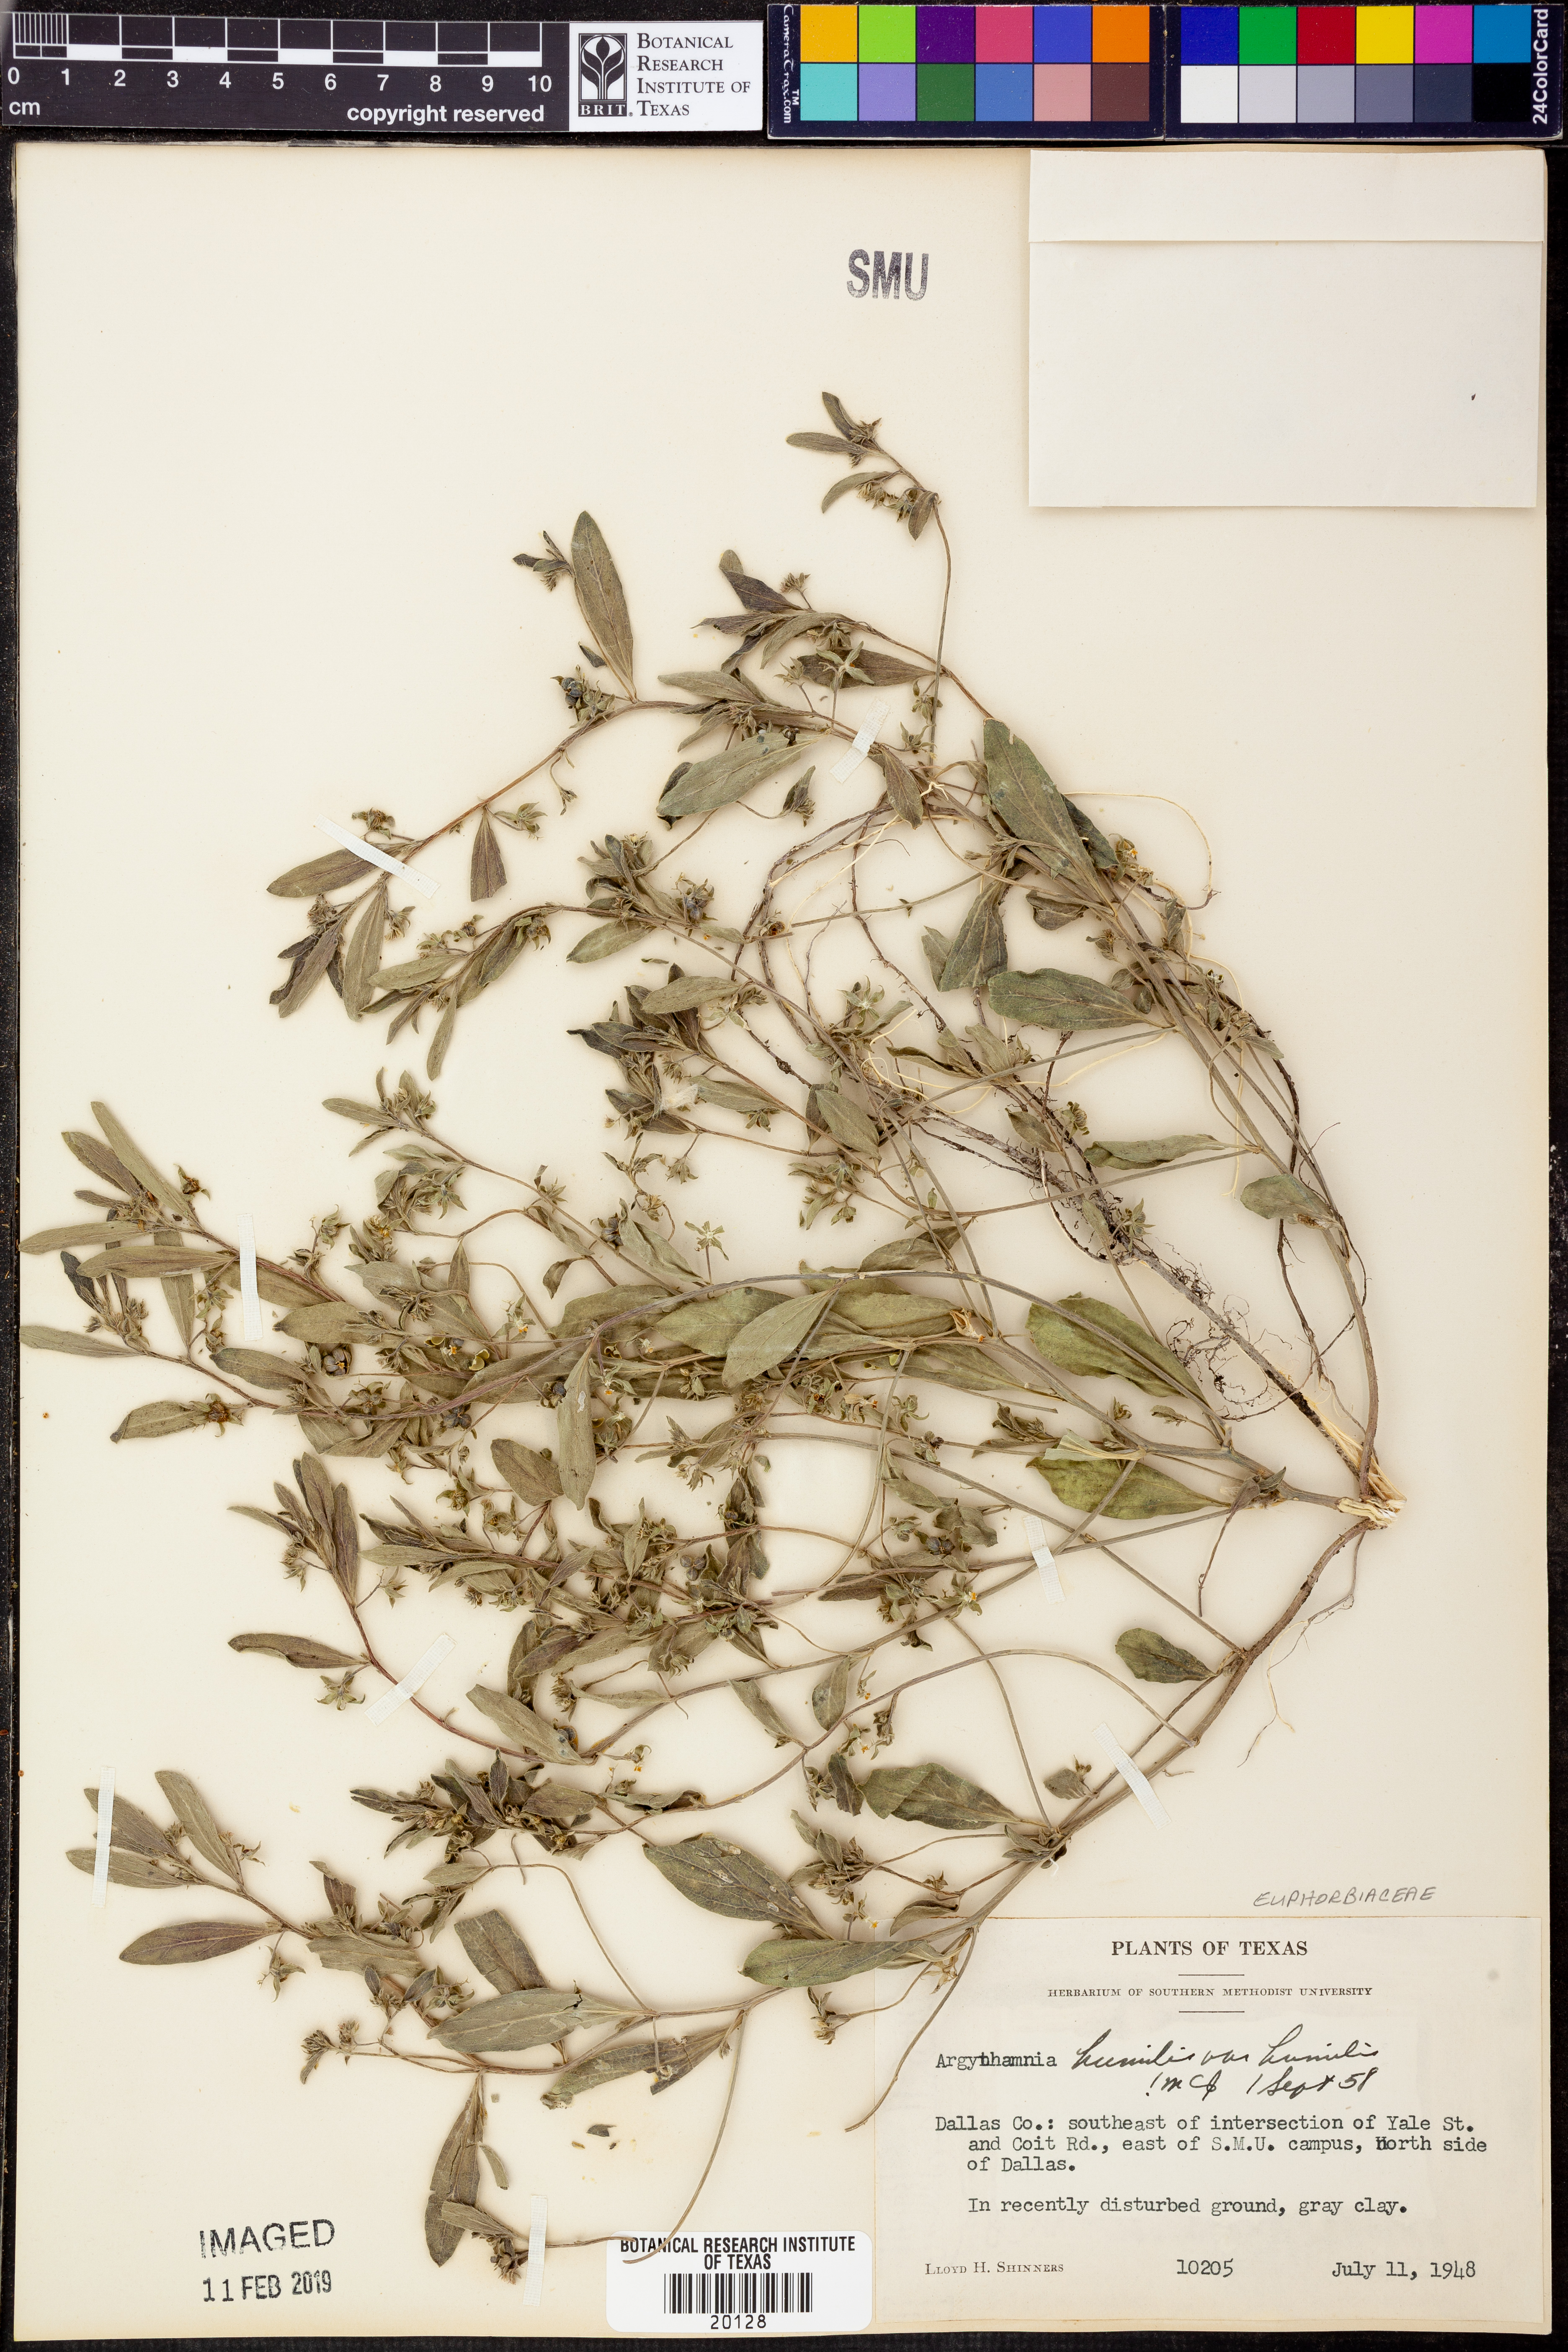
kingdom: Plantae
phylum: Tracheophyta
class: Magnoliopsida
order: Malpighiales
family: Euphorbiaceae
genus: Ditaxis
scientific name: Ditaxis humilis
